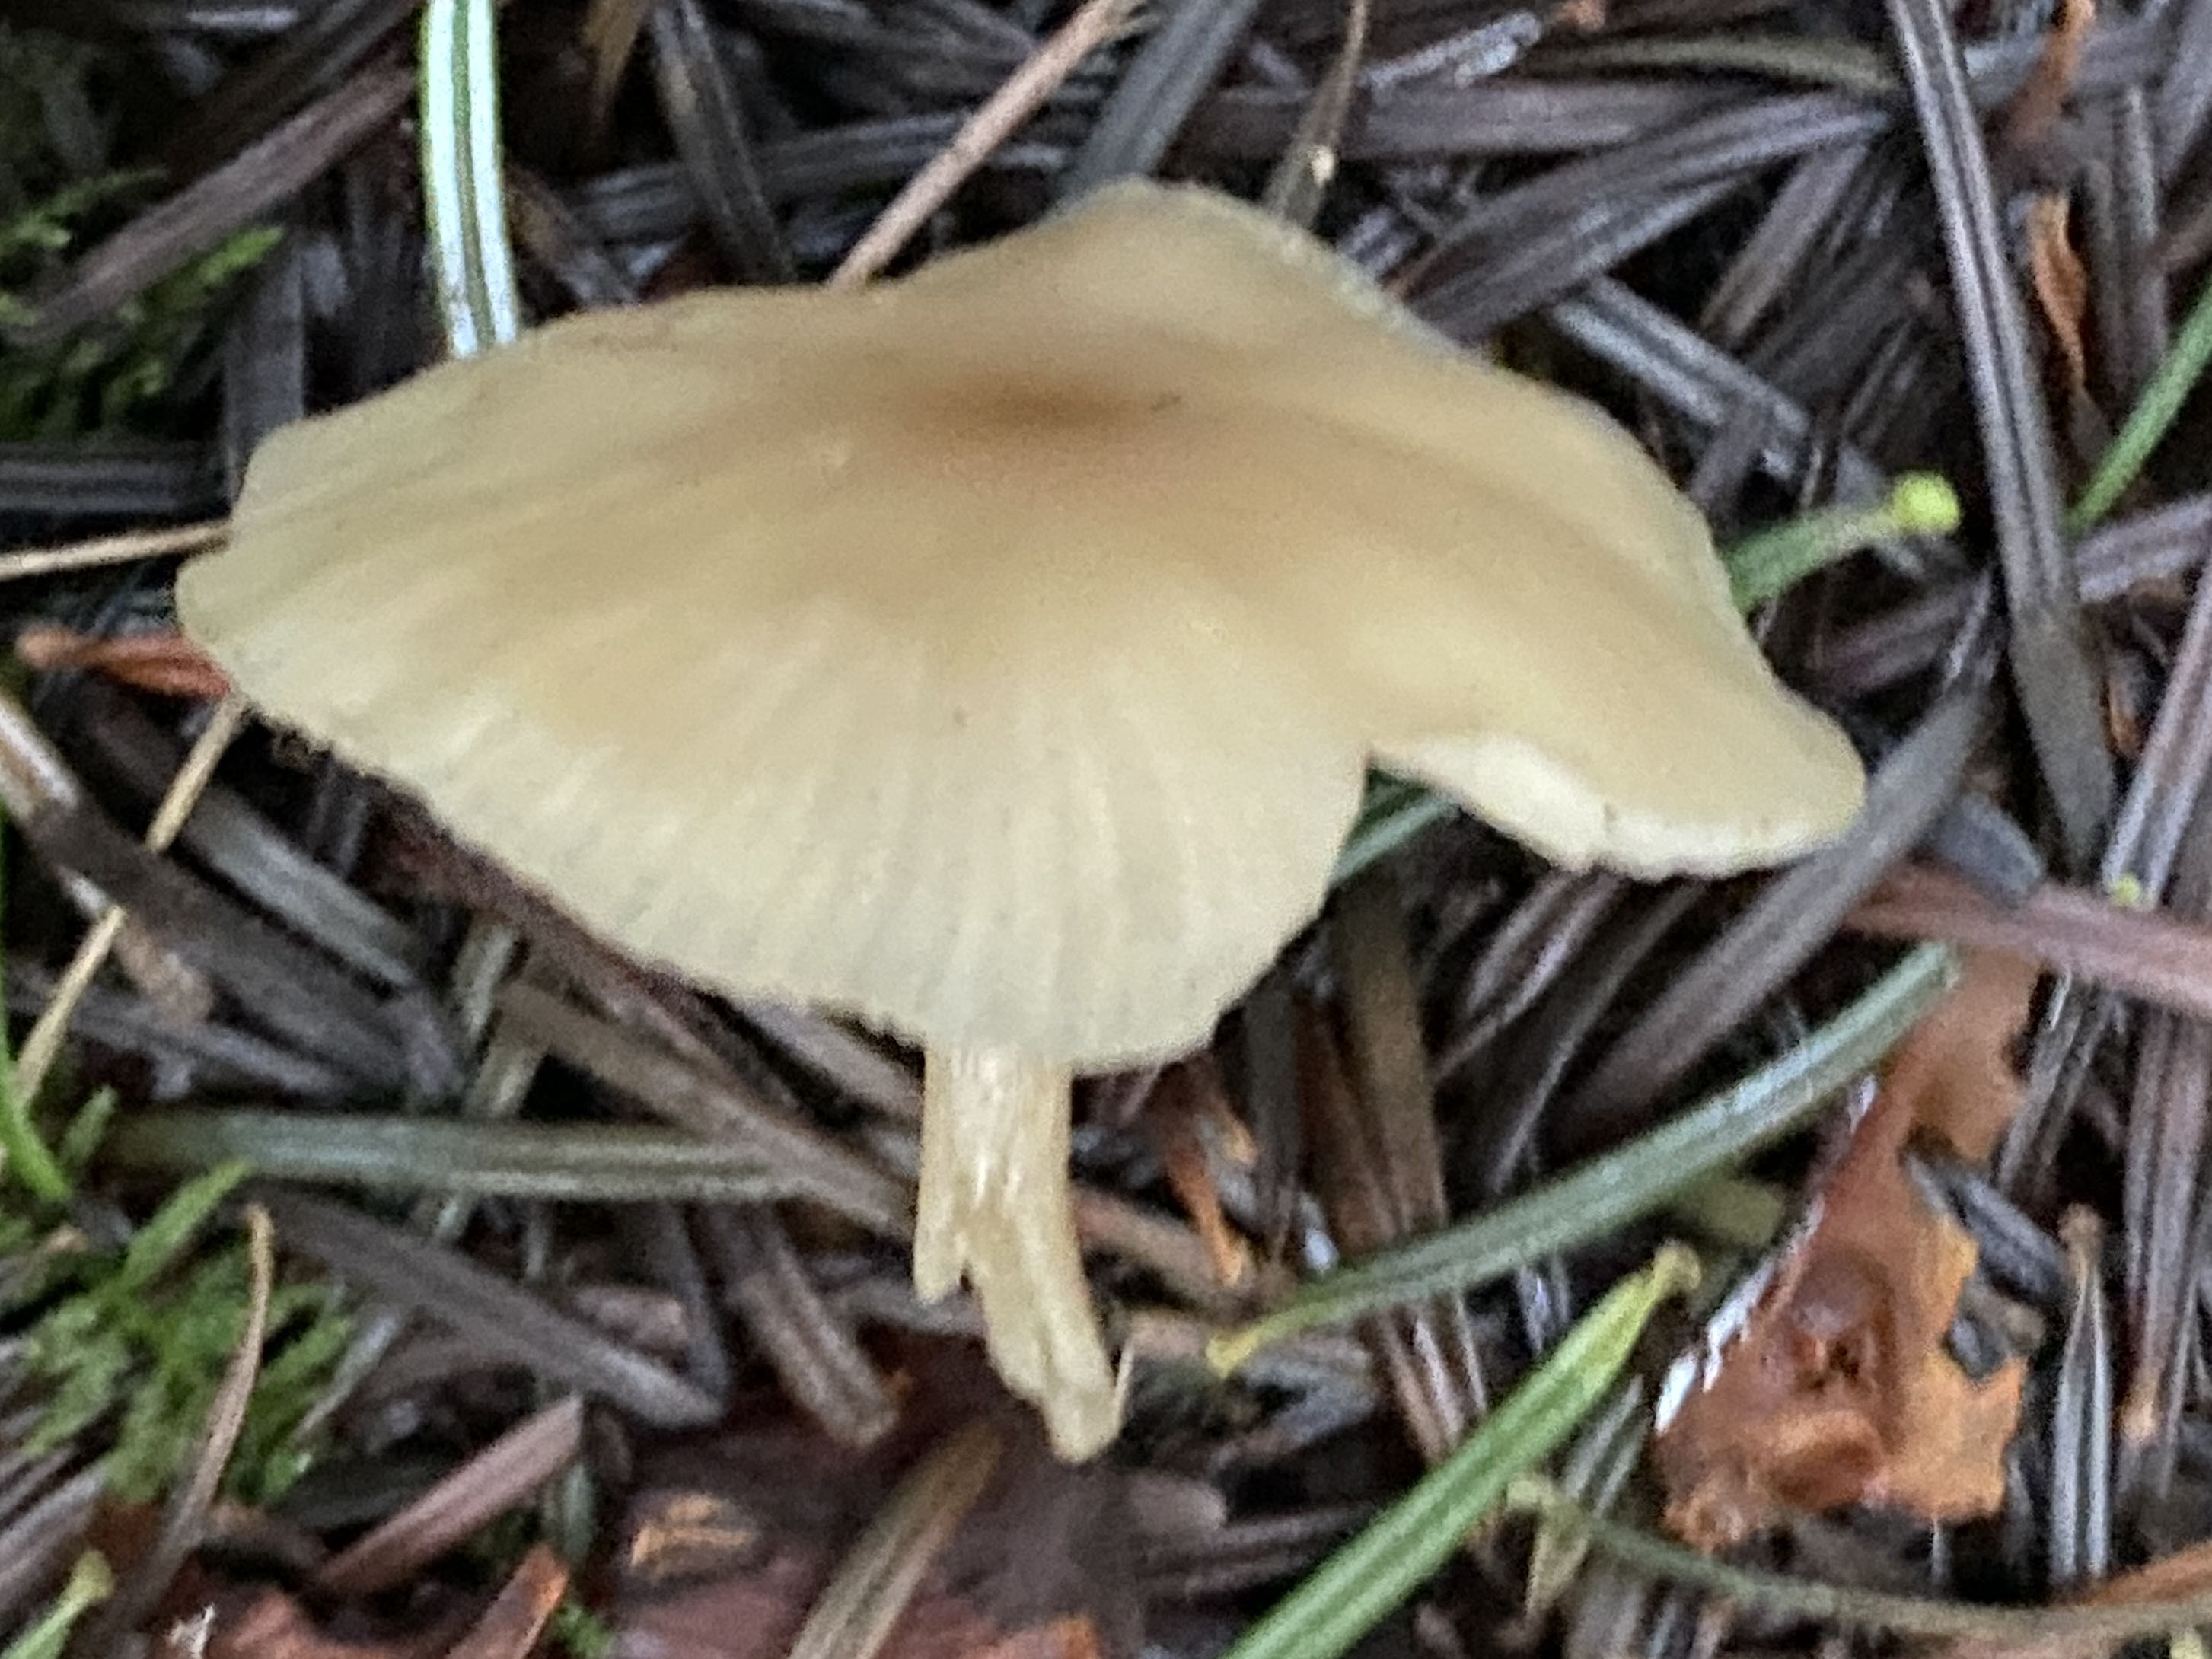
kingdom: Fungi
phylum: Basidiomycota
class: Agaricomycetes
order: Agaricales
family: Tricholomataceae
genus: Clitocybe
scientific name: Clitocybe fragrans
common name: vellugtende tragthat
